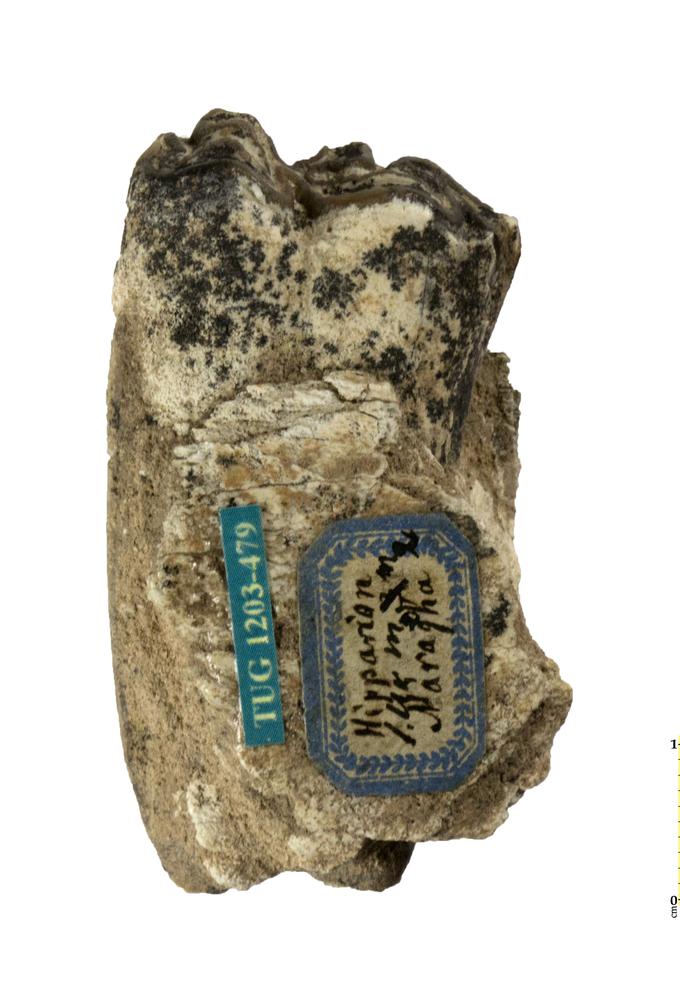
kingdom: Animalia
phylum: Chordata
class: Mammalia
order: Perissodactyla
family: Equidae
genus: Hipparion
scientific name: Hipparion
